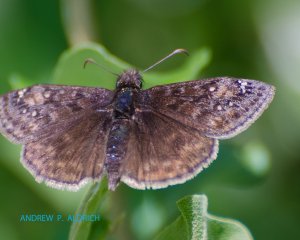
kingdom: Animalia
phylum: Arthropoda
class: Insecta
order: Lepidoptera
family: Hesperiidae
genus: Gesta
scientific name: Gesta
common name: Juvenal's Duskywing
